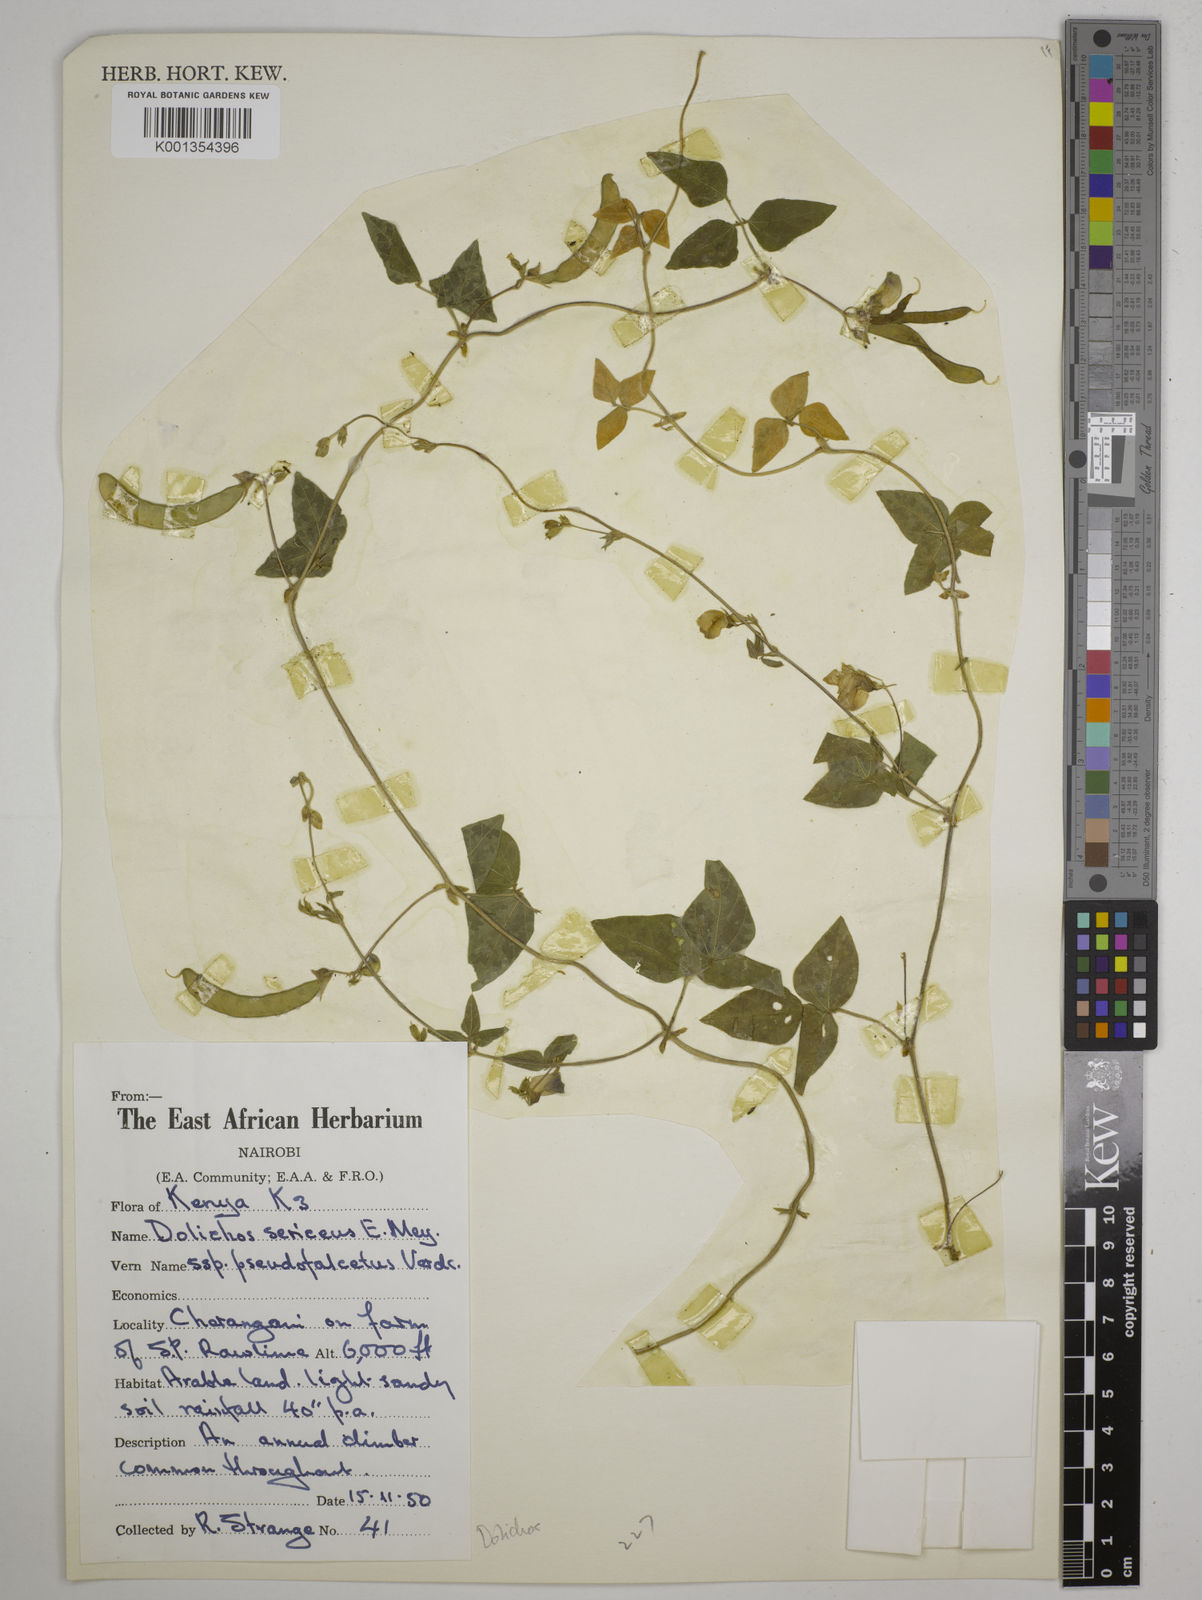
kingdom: Plantae
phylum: Tracheophyta
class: Magnoliopsida
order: Fabales
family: Fabaceae
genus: Dolichos
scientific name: Dolichos
